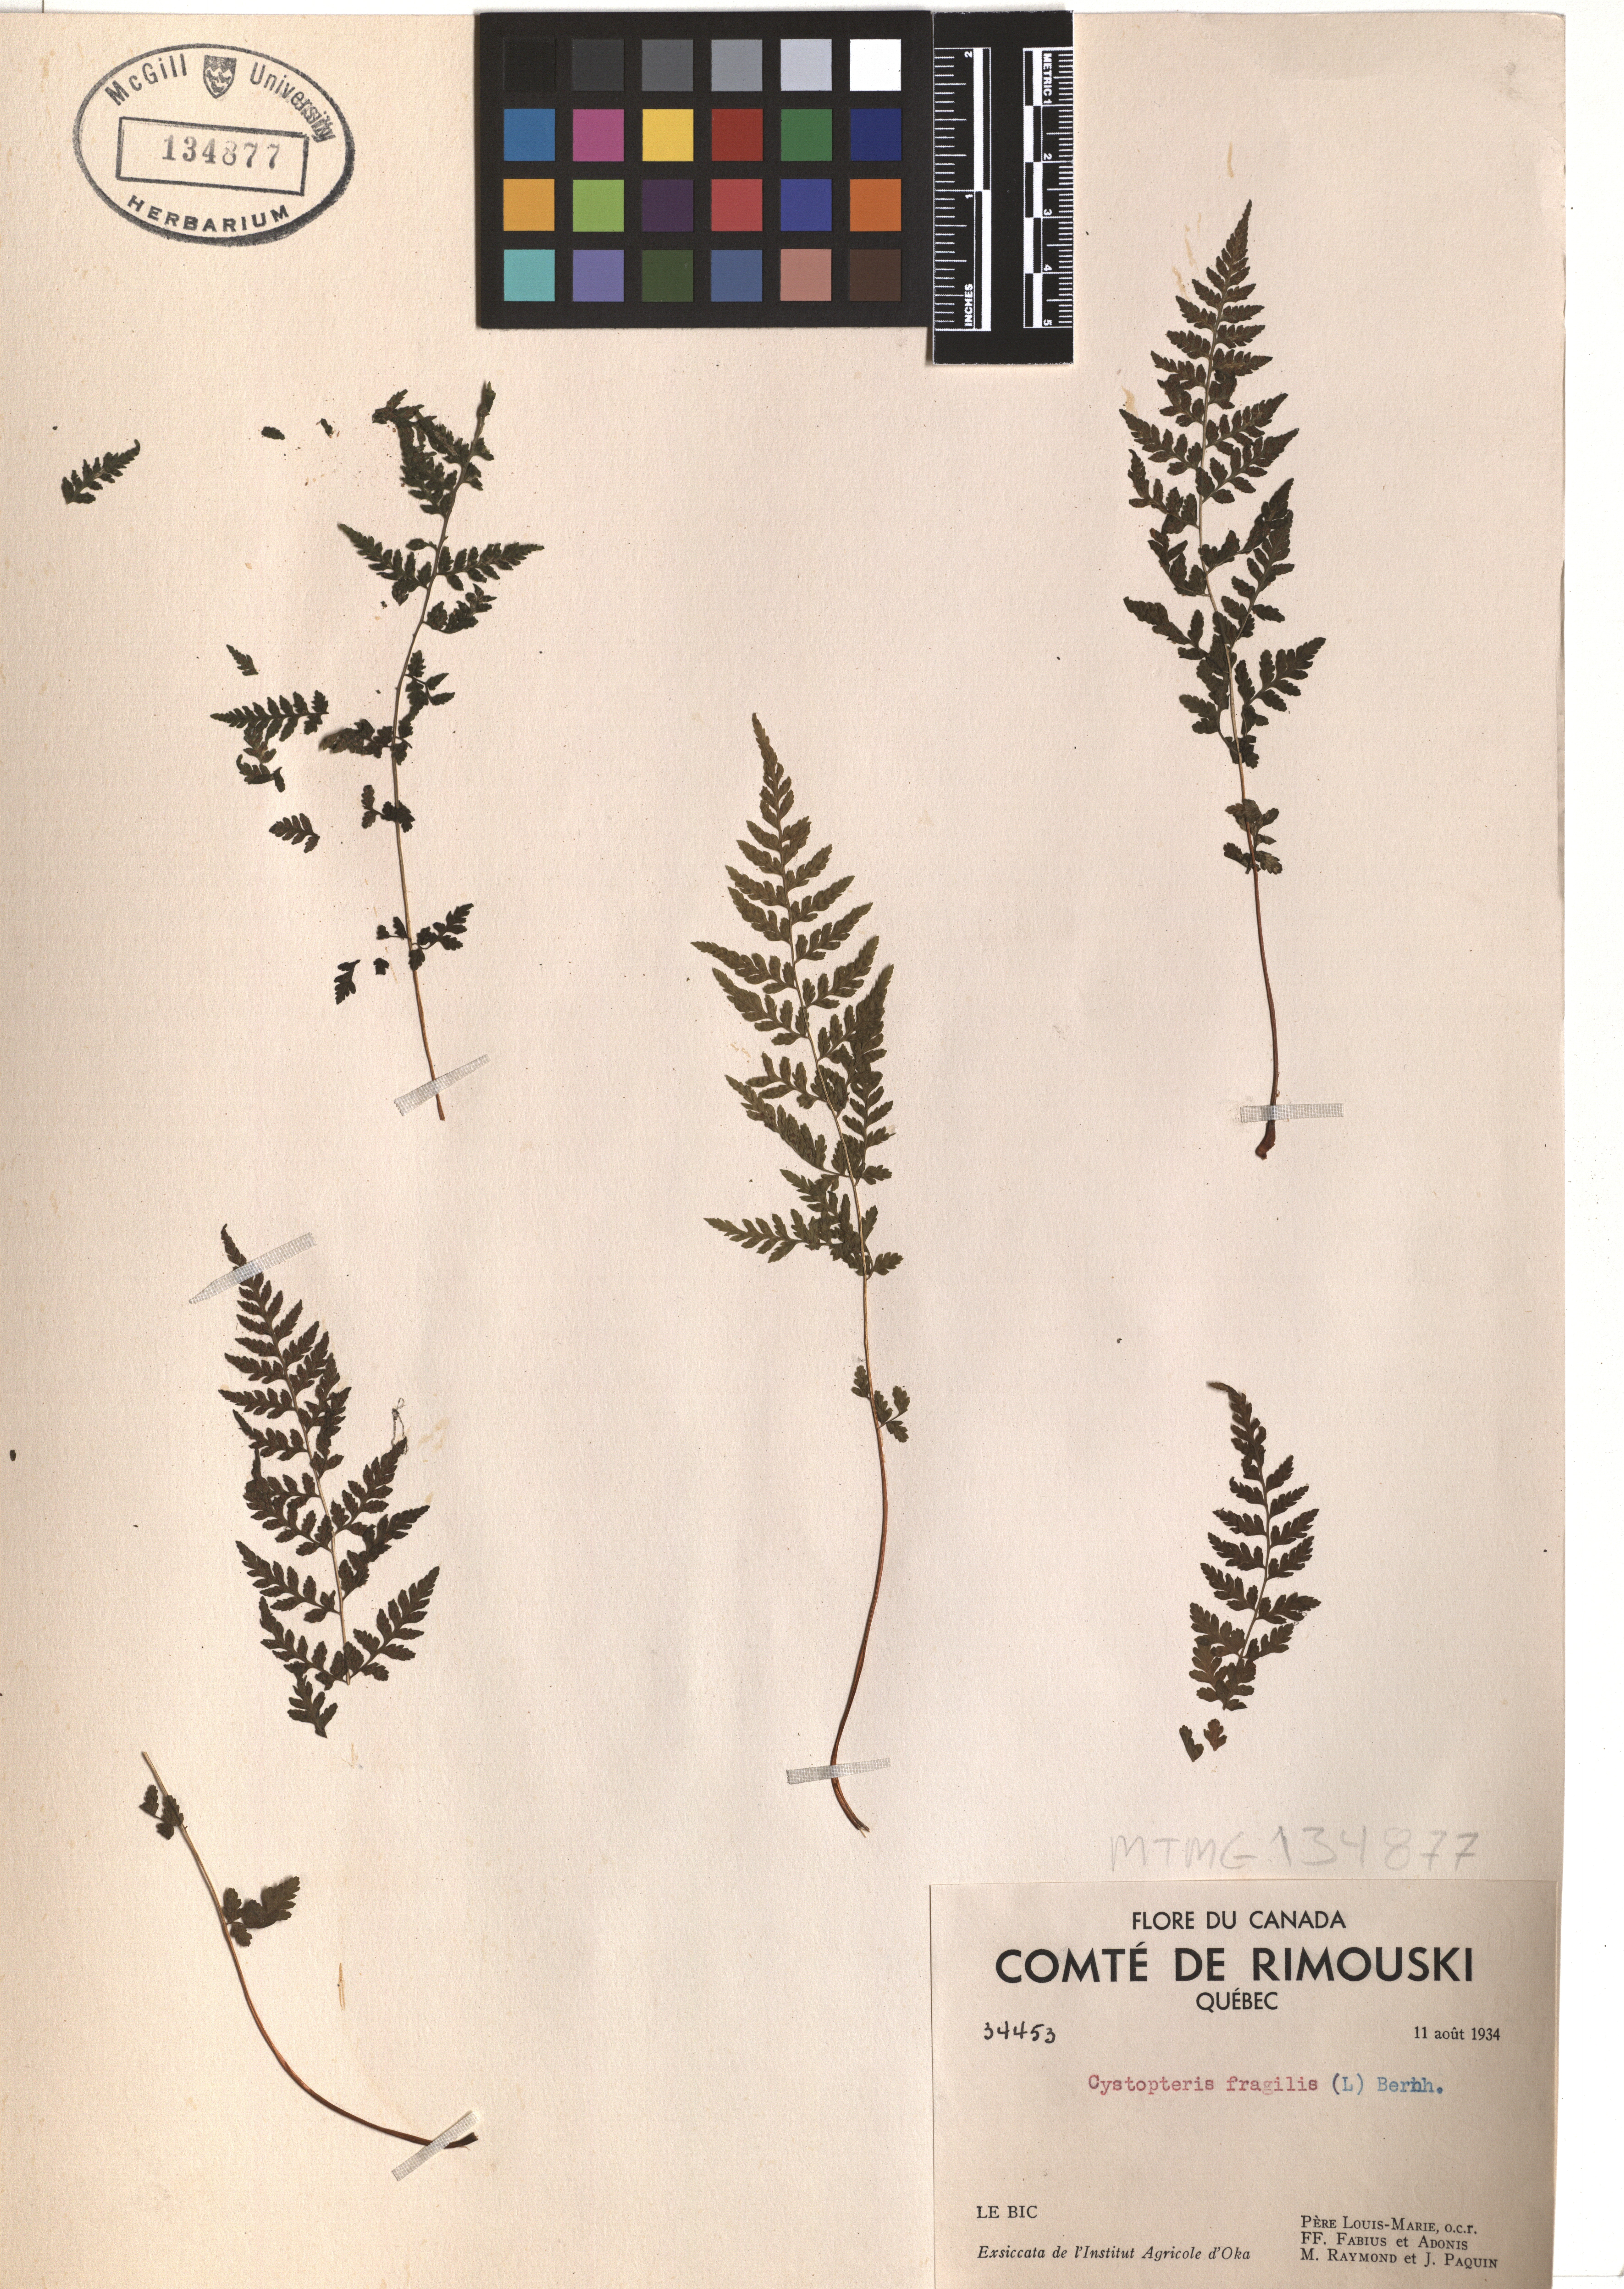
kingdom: Plantae
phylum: Tracheophyta
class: Polypodiopsida
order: Polypodiales
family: Cystopteridaceae
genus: Cystopteris
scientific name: Cystopteris fragilis
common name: Brittle bladder fern
